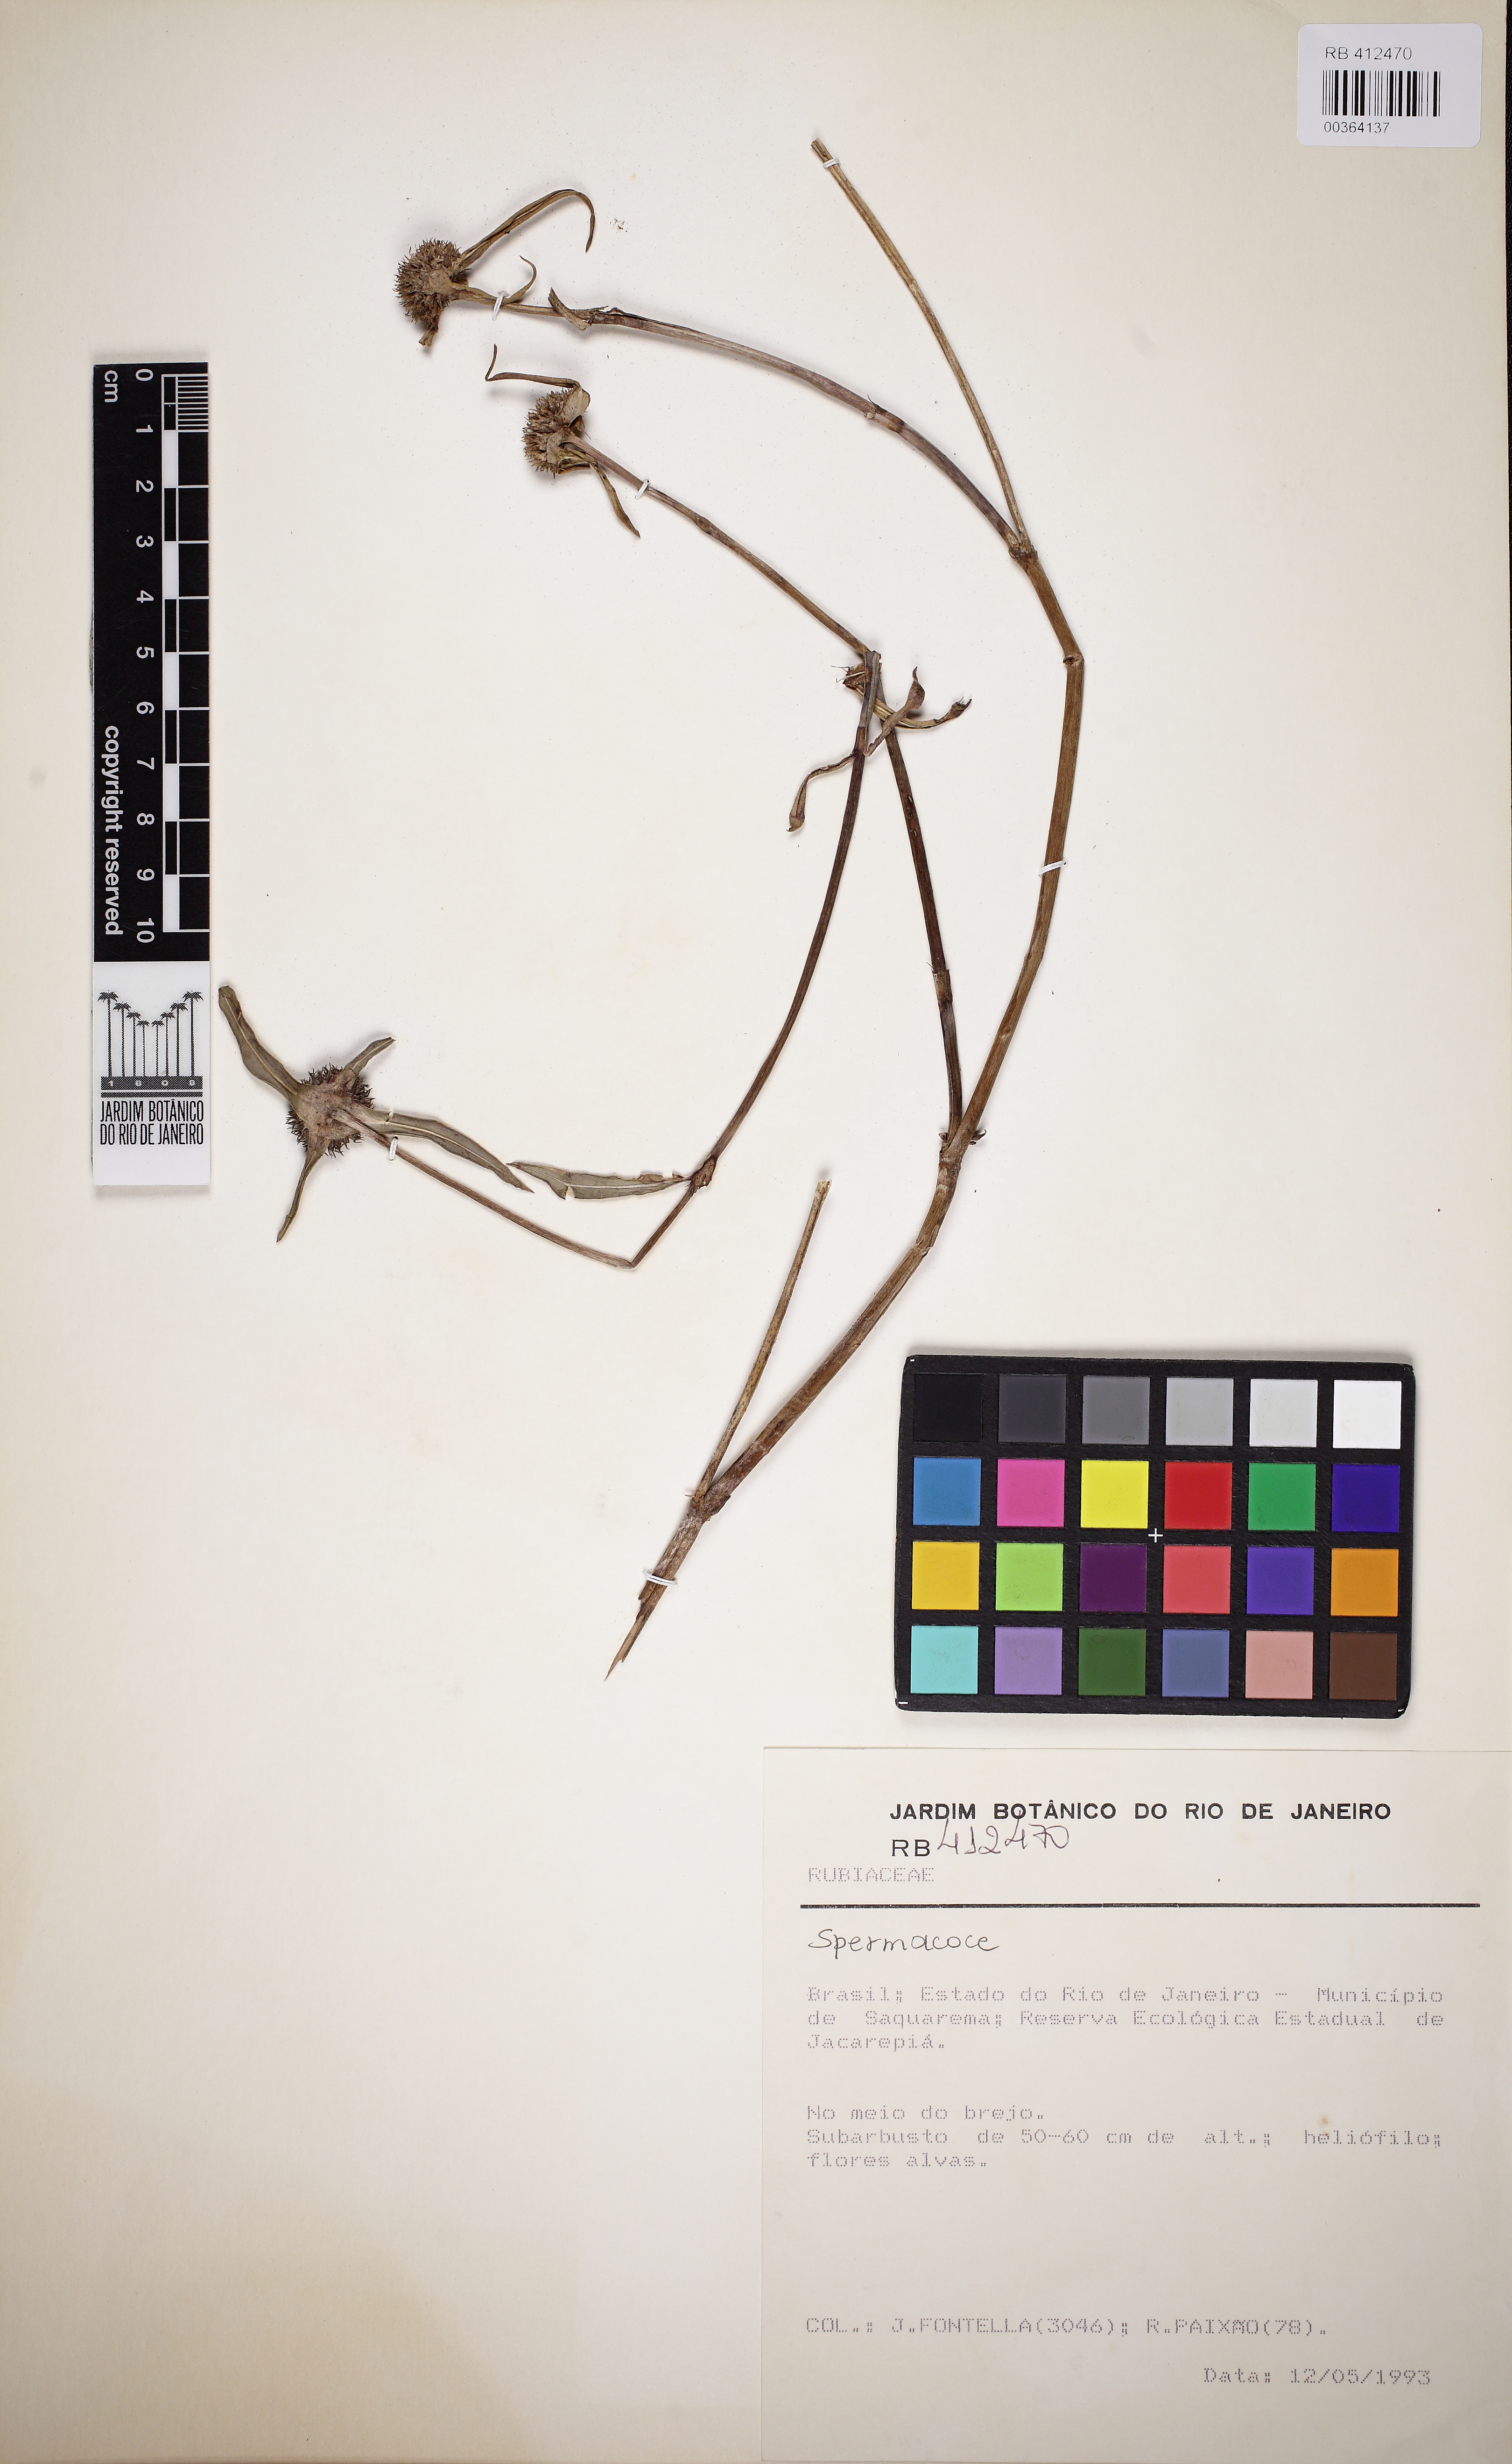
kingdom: Plantae
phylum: Tracheophyta
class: Magnoliopsida
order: Gentianales
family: Rubiaceae
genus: Spermacoce
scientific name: Spermacoce scabiosoides
